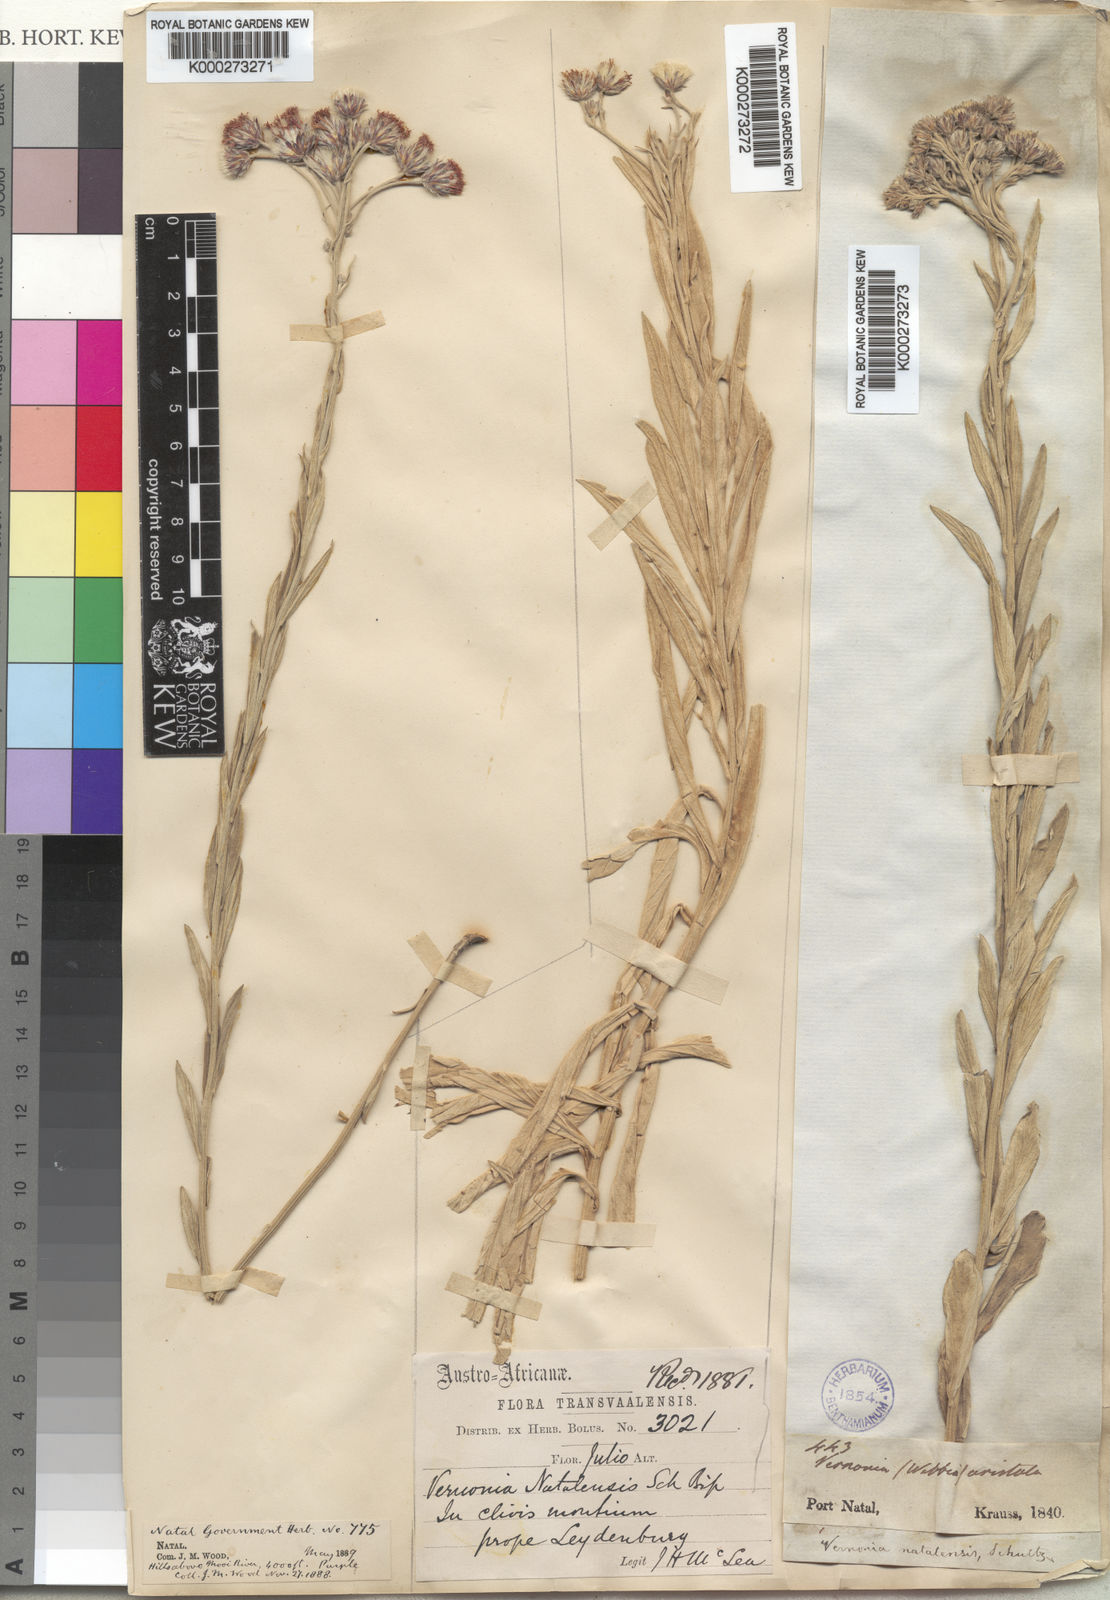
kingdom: Plantae
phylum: Tracheophyta
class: Magnoliopsida
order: Asterales
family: Asteraceae
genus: Vernonia
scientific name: Vernonia
